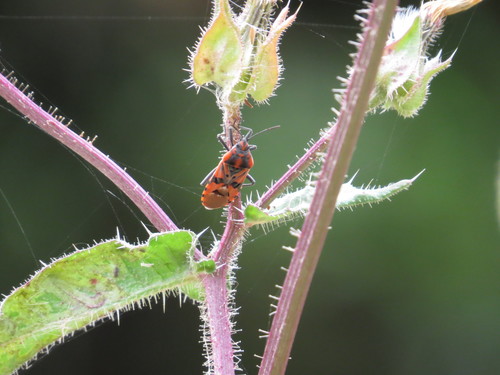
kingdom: Animalia
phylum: Arthropoda
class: Insecta
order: Hemiptera
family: Lygaeidae
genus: Spilostethus
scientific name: Spilostethus pandurus
